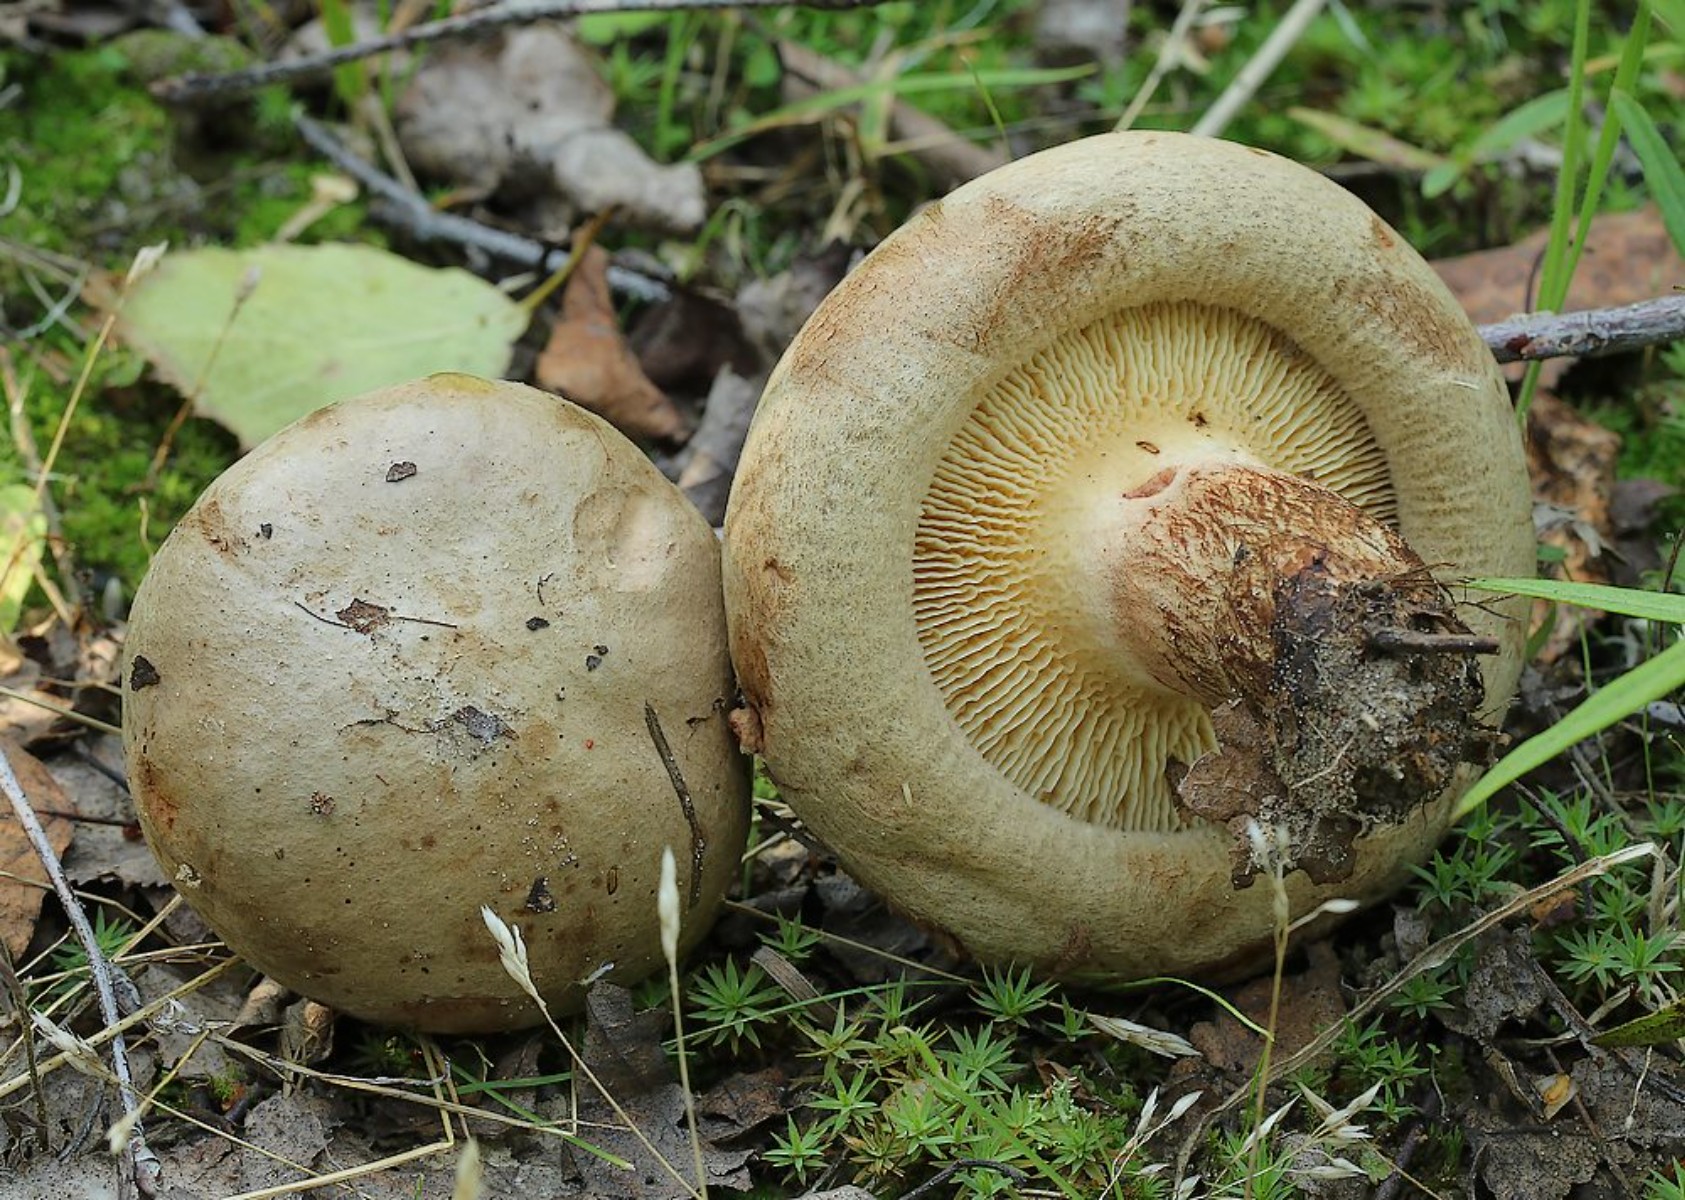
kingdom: Fungi
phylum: Basidiomycota
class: Agaricomycetes
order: Boletales
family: Paxillaceae
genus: Paxillus
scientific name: Paxillus
